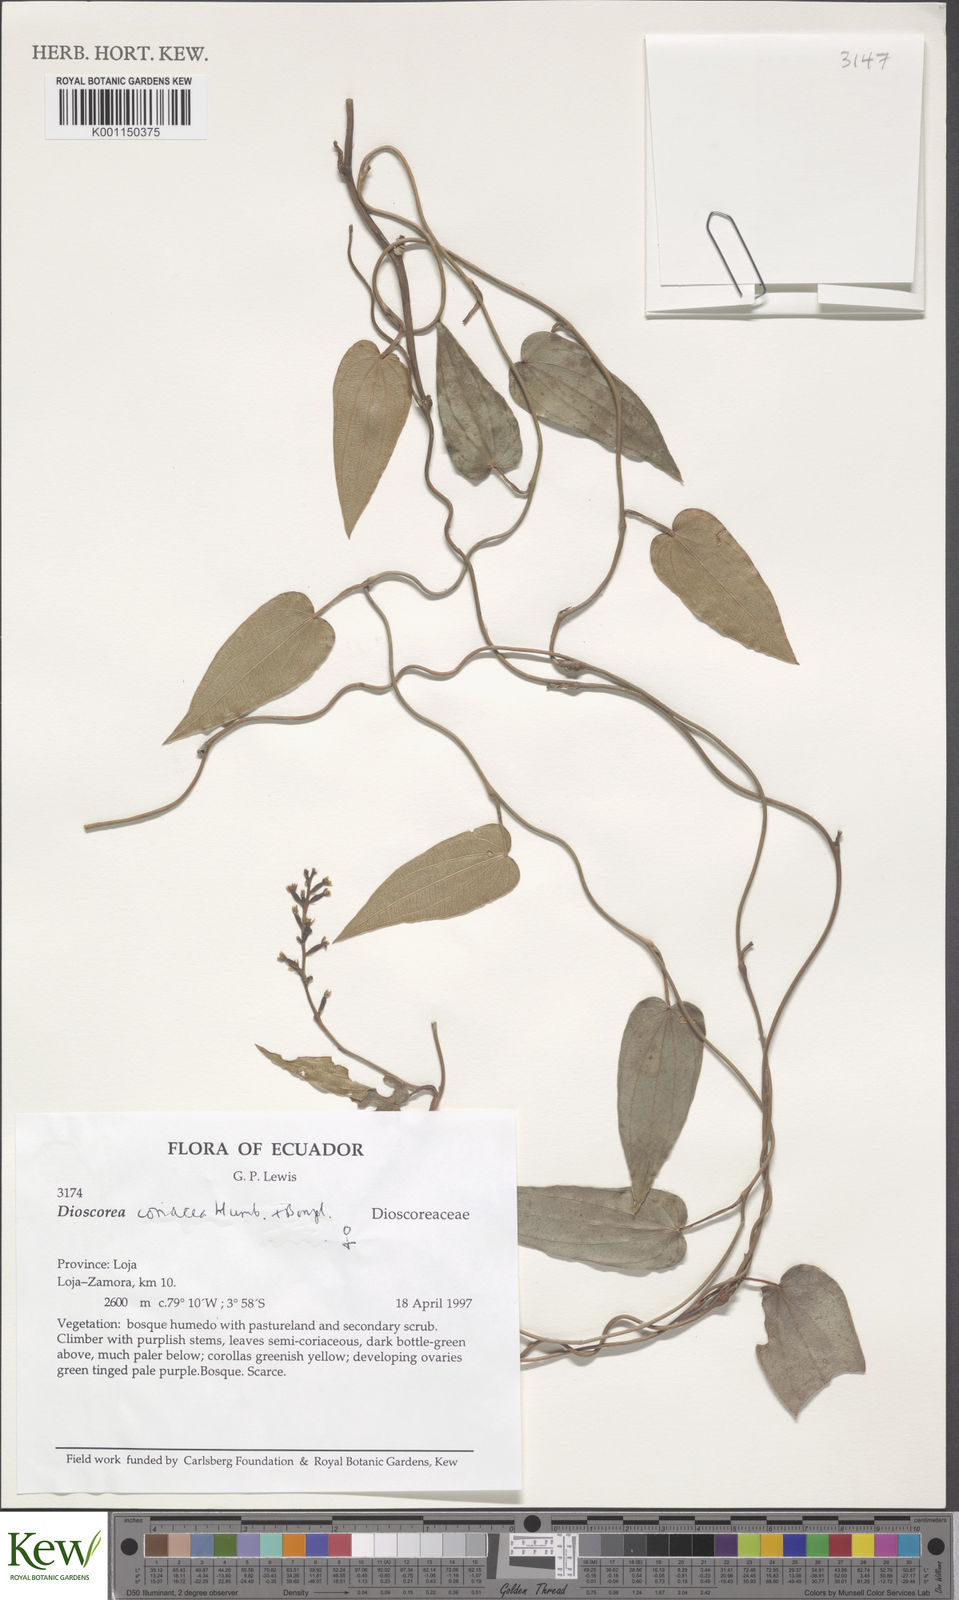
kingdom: Plantae
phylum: Tracheophyta
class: Liliopsida
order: Dioscoreales
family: Dioscoreaceae
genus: Dioscorea
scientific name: Dioscorea coriacea
